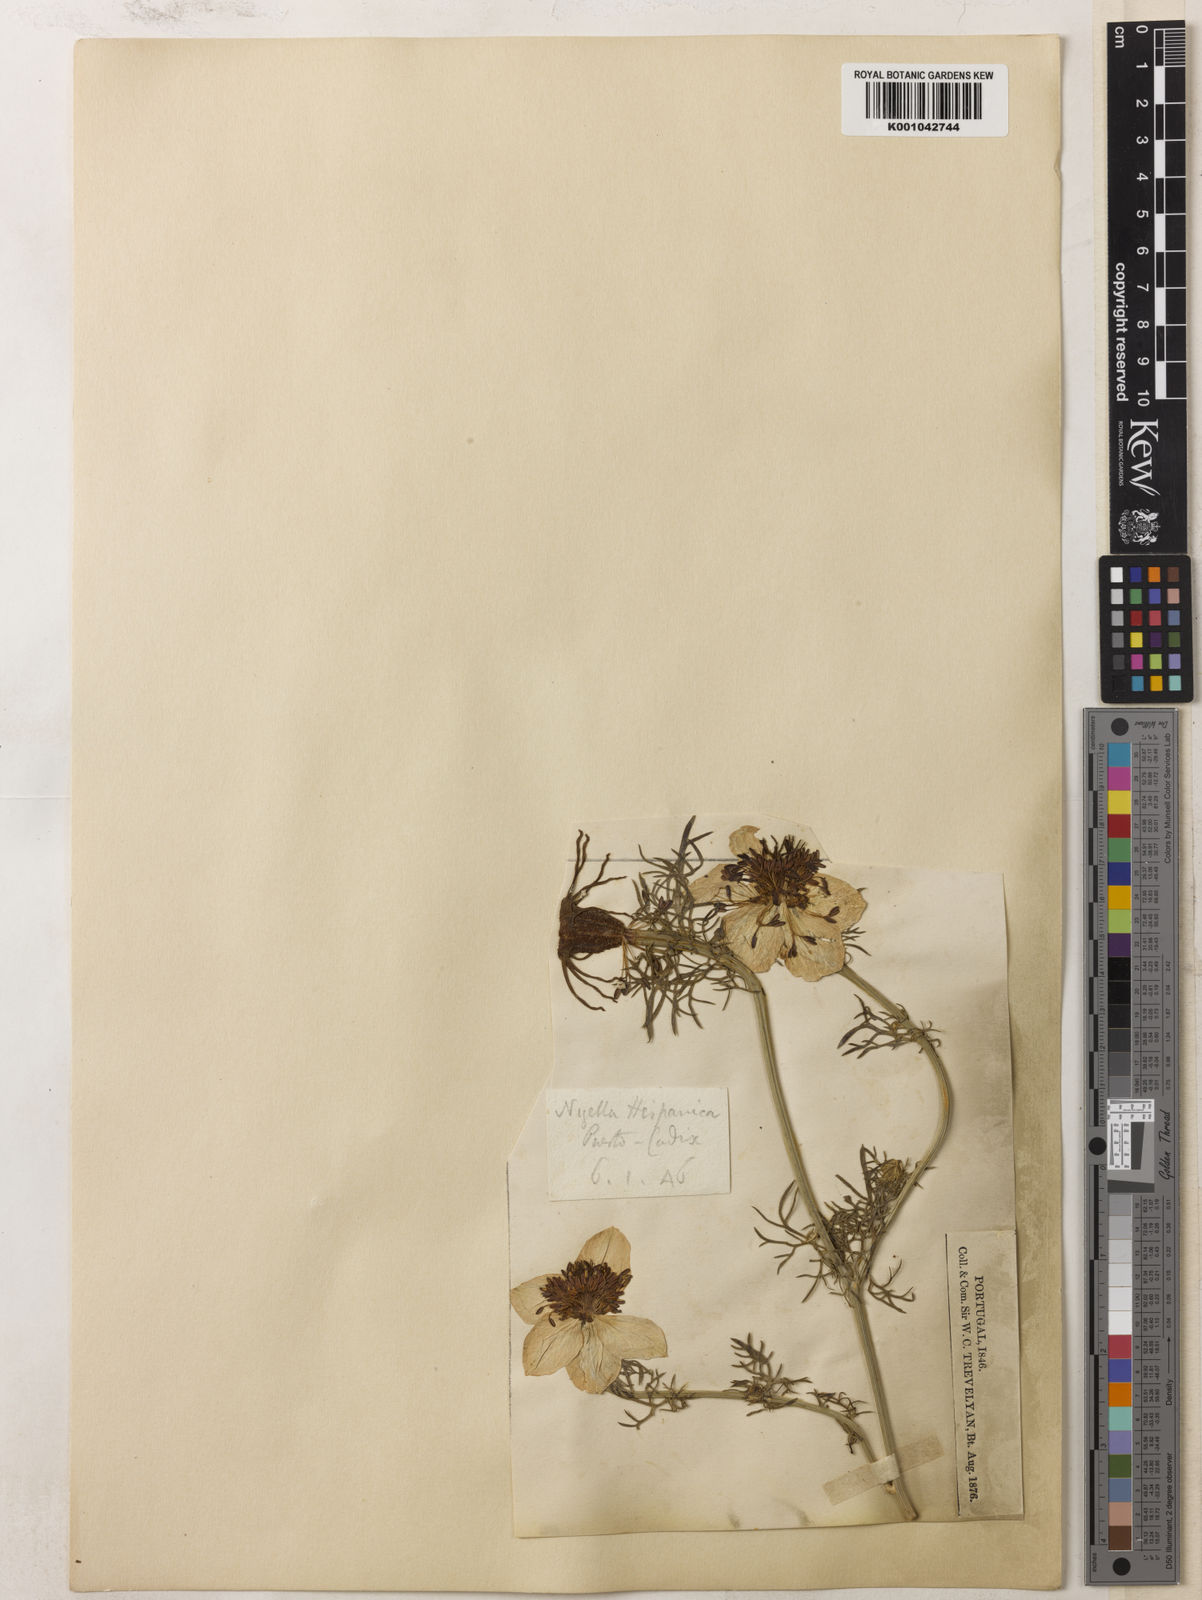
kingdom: Plantae
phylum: Tracheophyta
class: Magnoliopsida
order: Ranunculales
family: Ranunculaceae
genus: Nigella
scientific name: Nigella hispanica
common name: Fennel-flower
